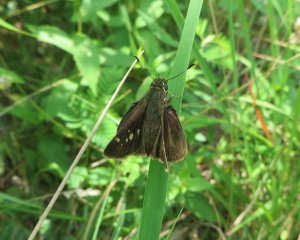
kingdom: Animalia
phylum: Arthropoda
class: Insecta
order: Lepidoptera
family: Hesperiidae
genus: Vernia
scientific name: Vernia verna
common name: Little Glassywing
